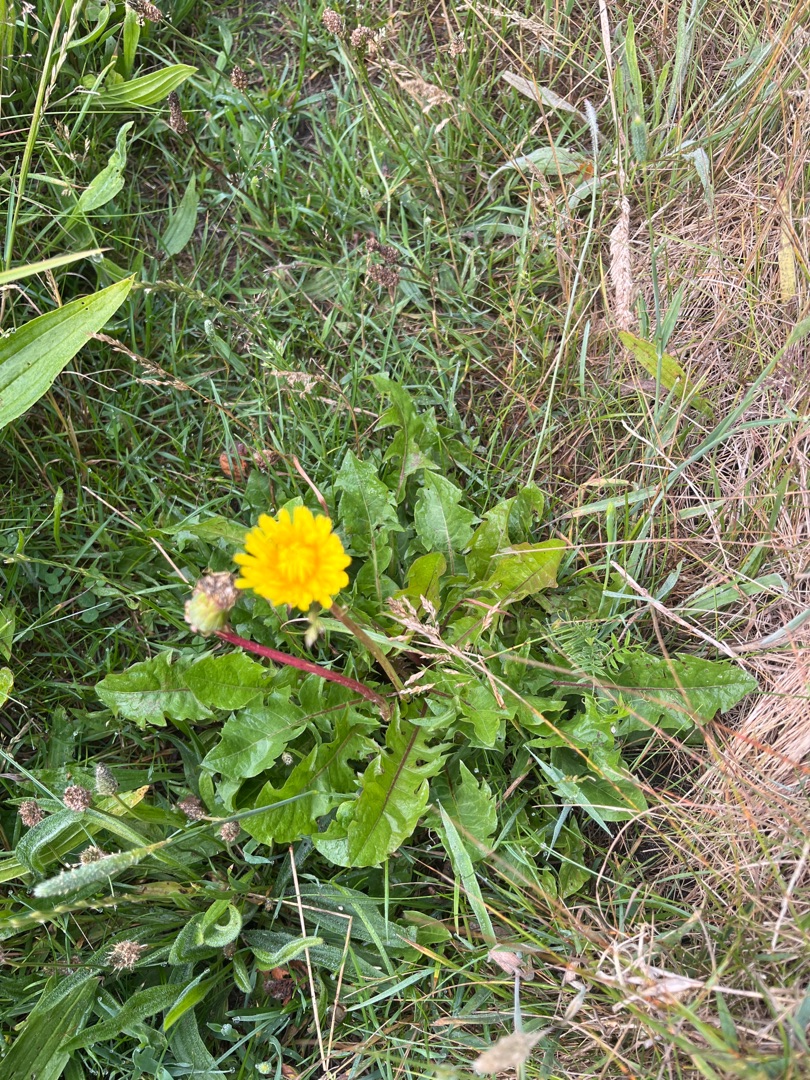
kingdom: Plantae
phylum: Tracheophyta
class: Magnoliopsida
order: Asterales
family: Asteraceae
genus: Taraxacum
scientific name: Taraxacum
